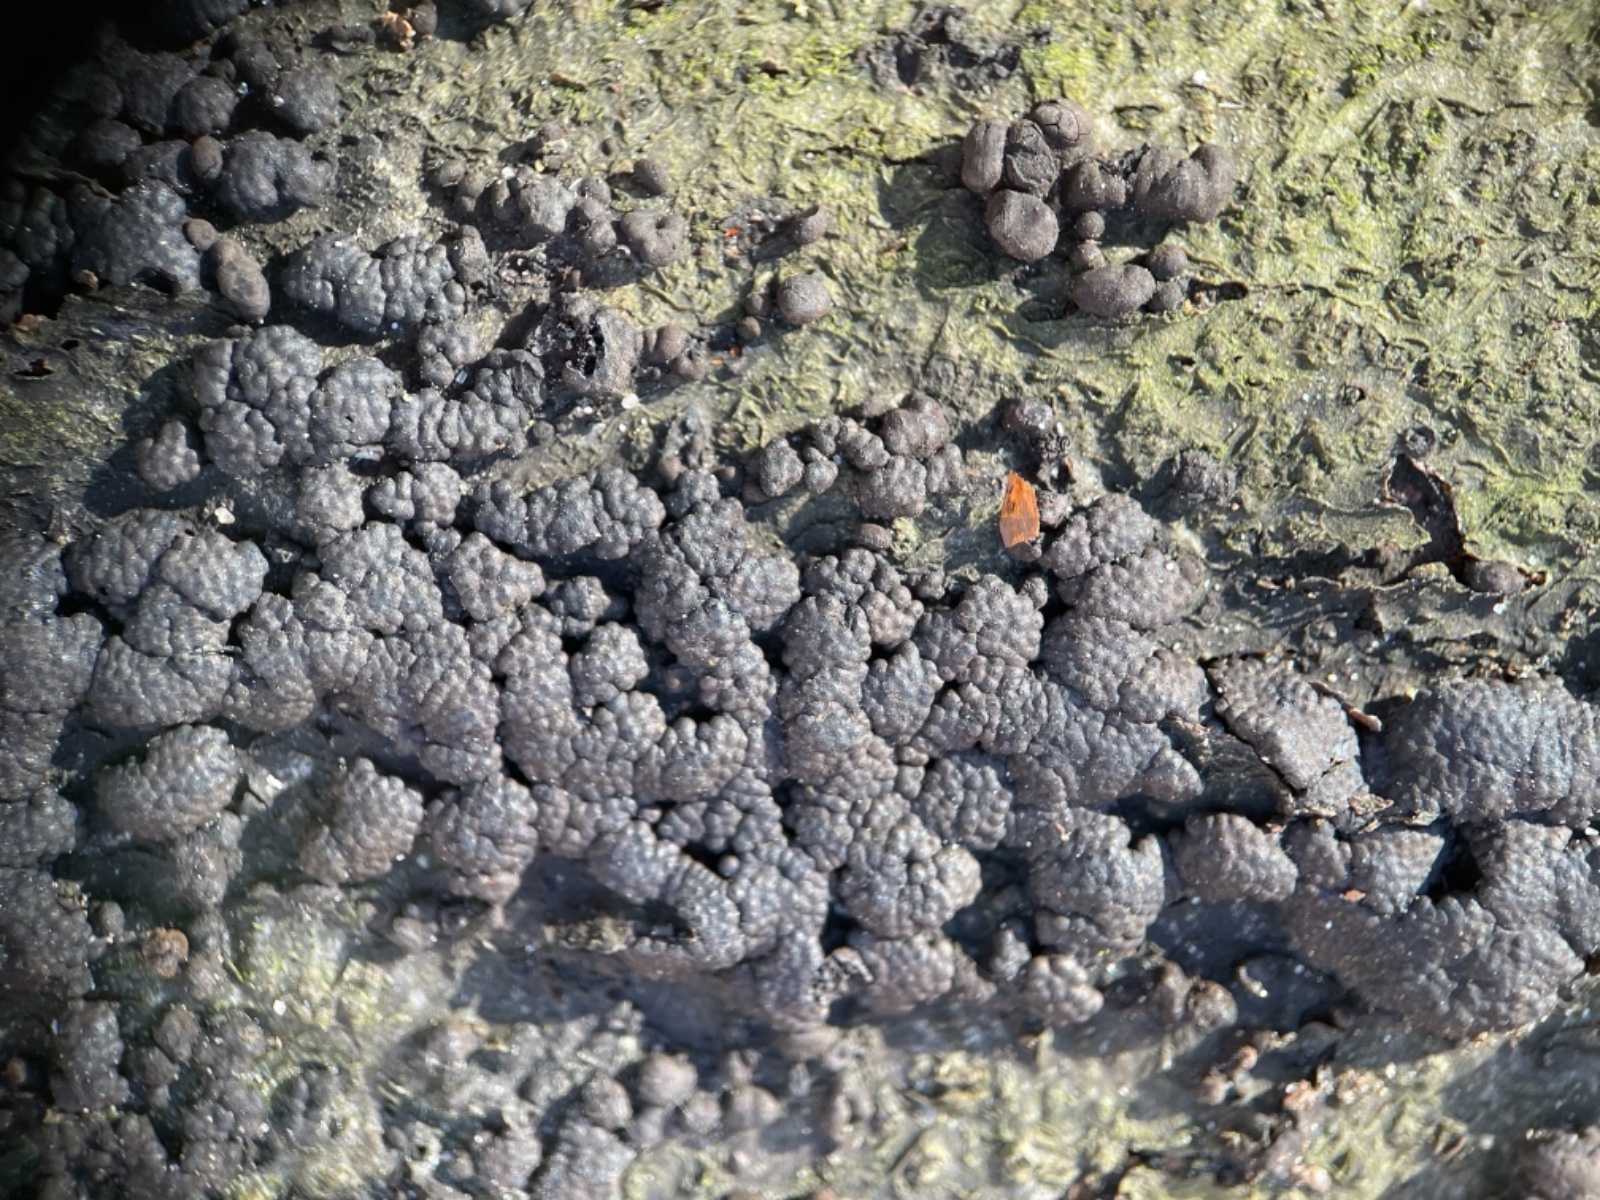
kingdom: Fungi
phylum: Ascomycota
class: Sordariomycetes
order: Xylariales
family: Hypoxylaceae
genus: Jackrogersella
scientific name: Jackrogersella cohaerens
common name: sammenflydende kulbær
